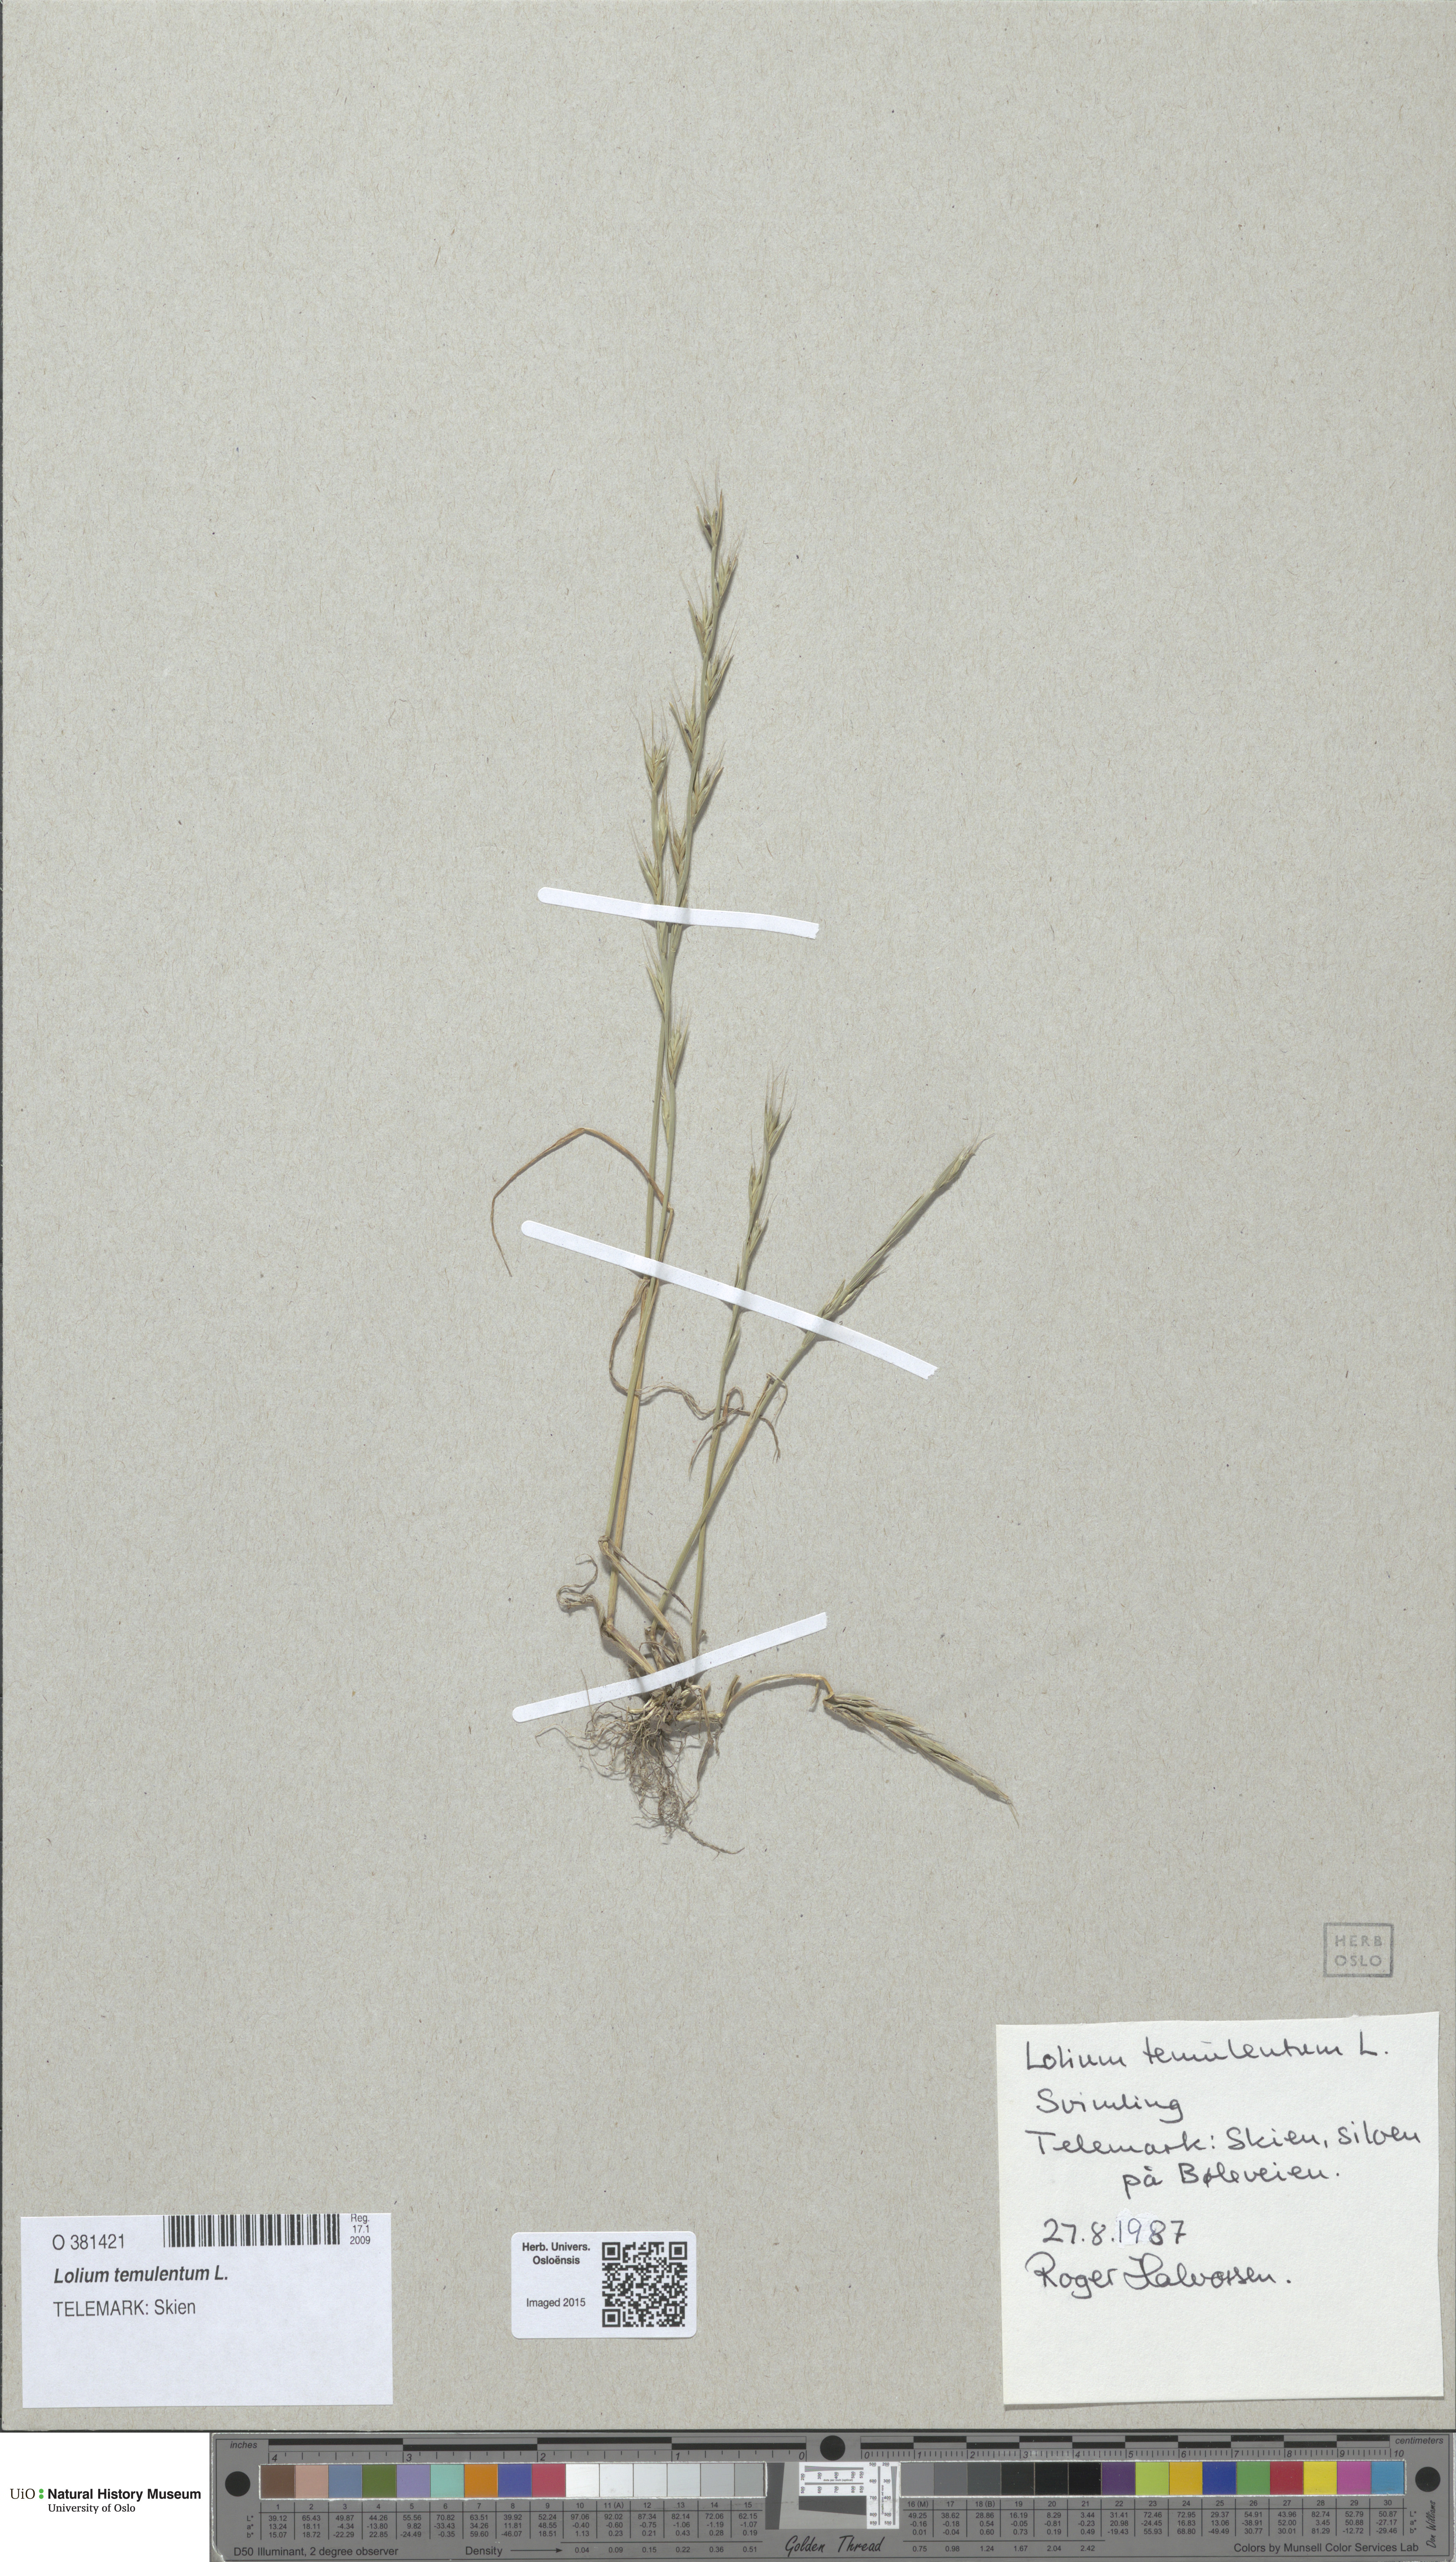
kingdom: Plantae
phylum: Tracheophyta
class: Liliopsida
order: Poales
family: Poaceae
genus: Lolium
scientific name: Lolium temulentum
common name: Darnel
